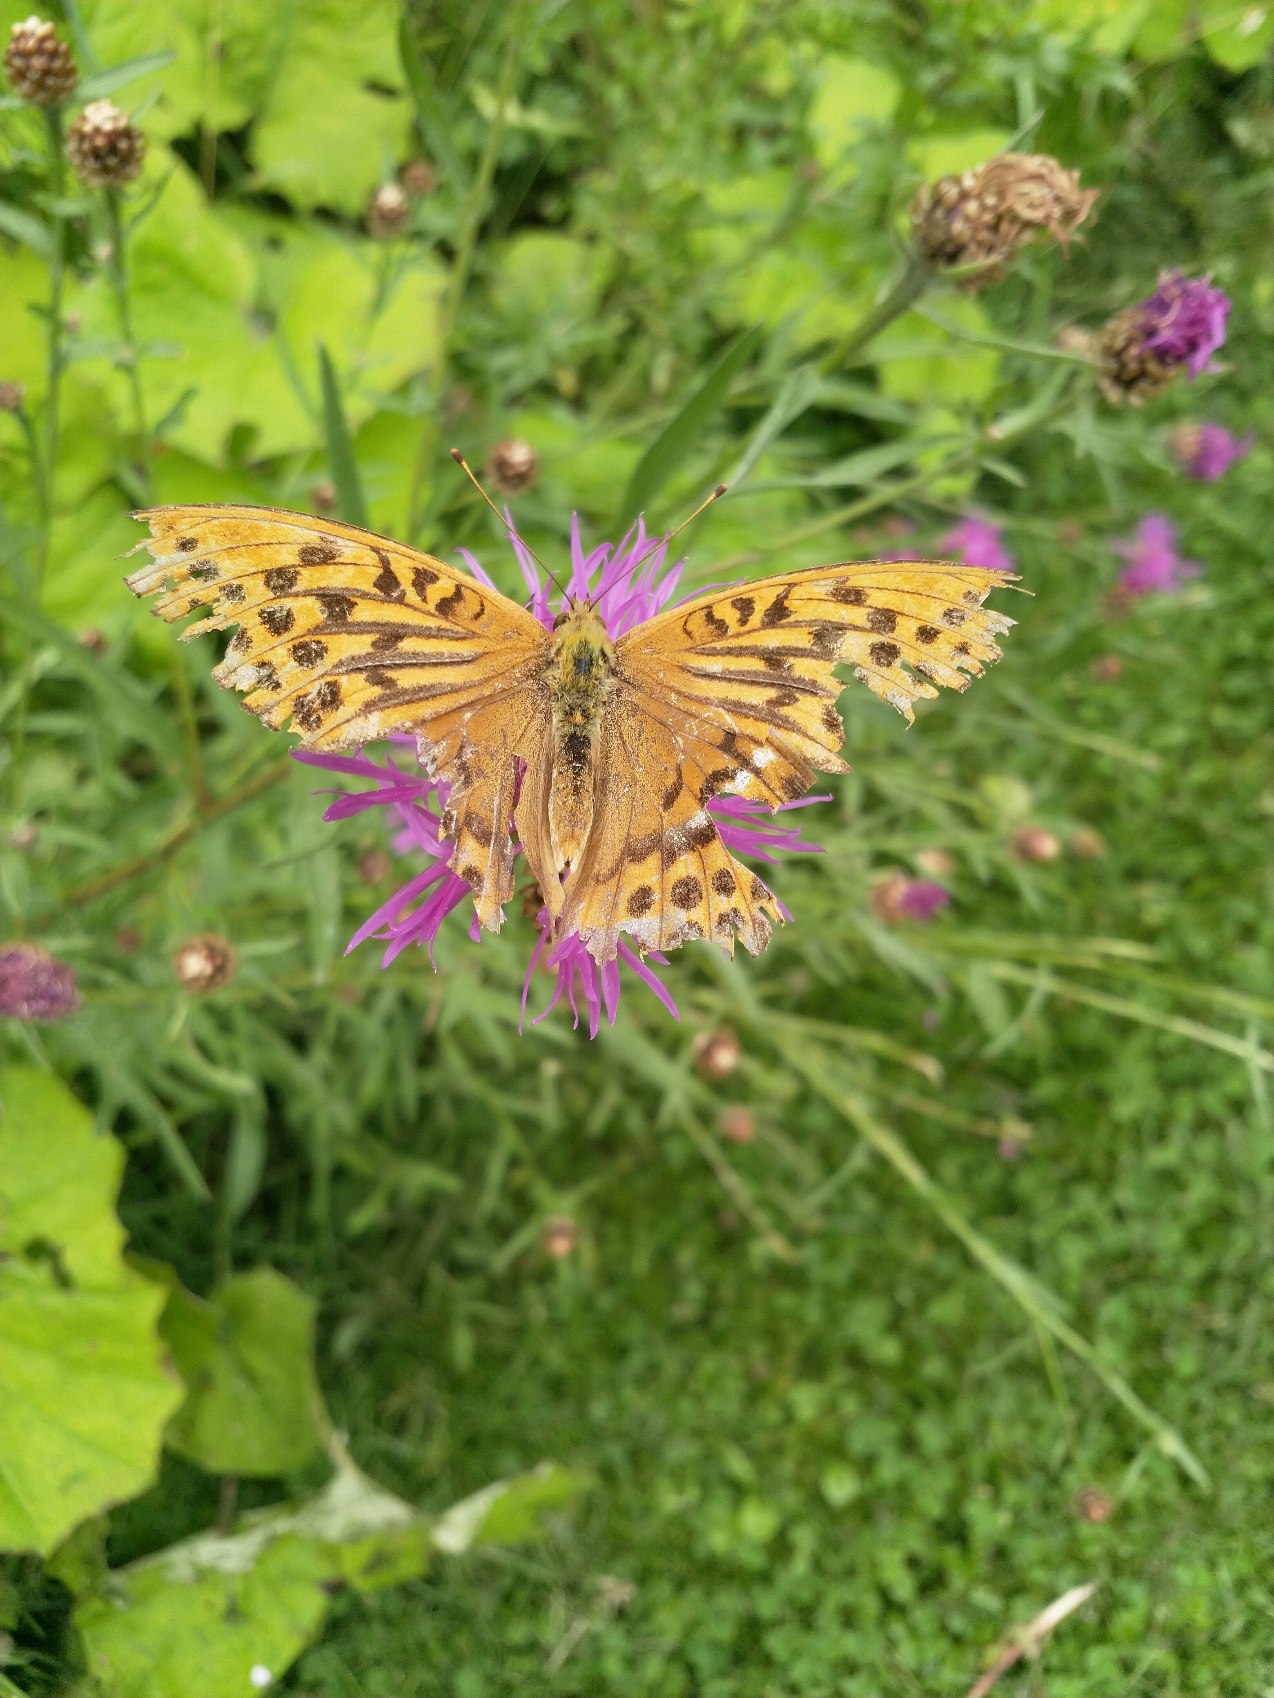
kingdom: Animalia
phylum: Arthropoda
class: Insecta
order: Lepidoptera
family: Nymphalidae
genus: Argynnis
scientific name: Argynnis paphia
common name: Kejserkåbe
